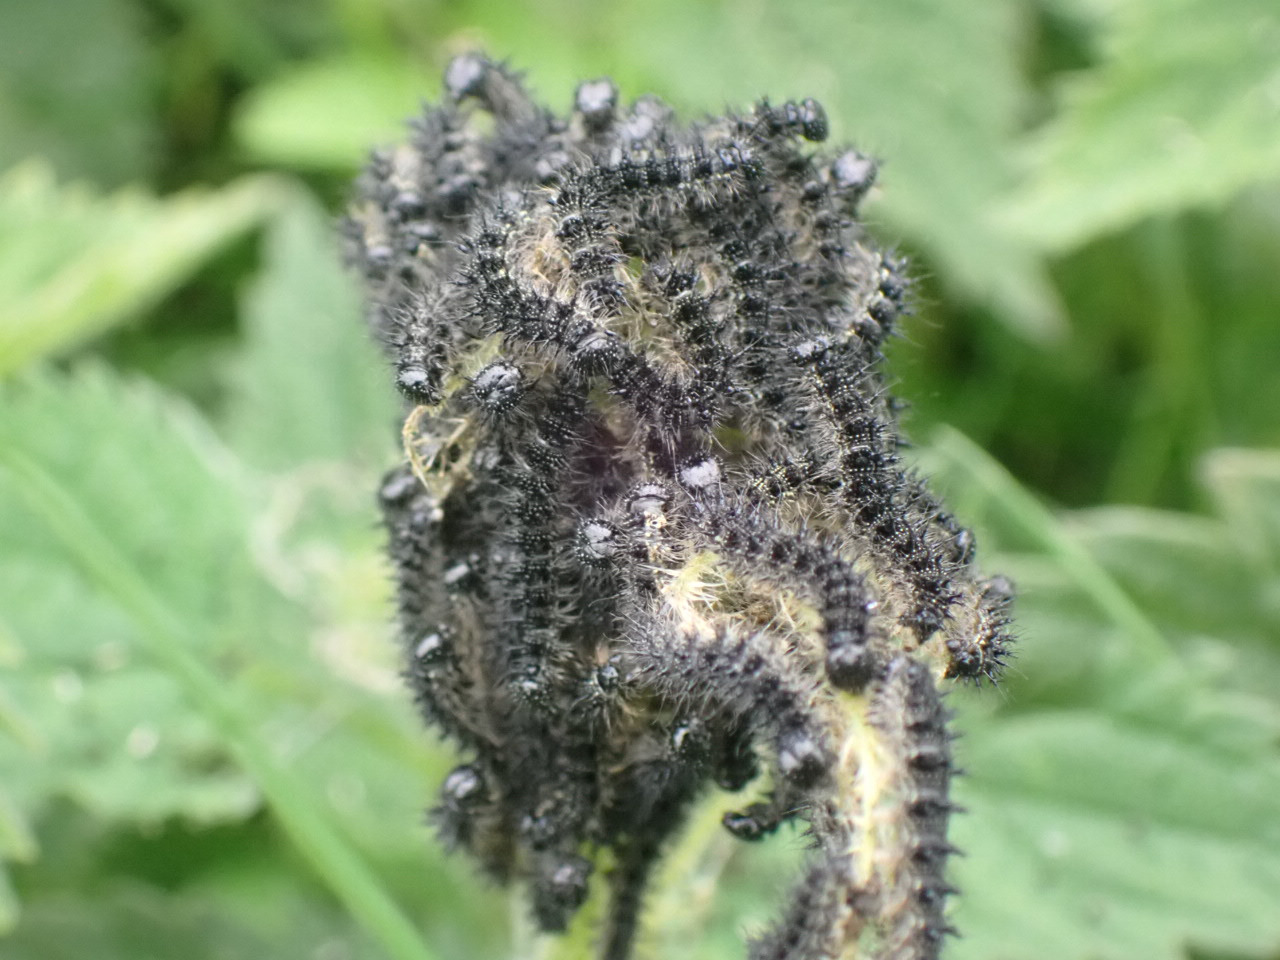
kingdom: Animalia
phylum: Arthropoda
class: Insecta
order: Lepidoptera
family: Nymphalidae
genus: Aglais
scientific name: Aglais io
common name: Dagpåfugleøje
